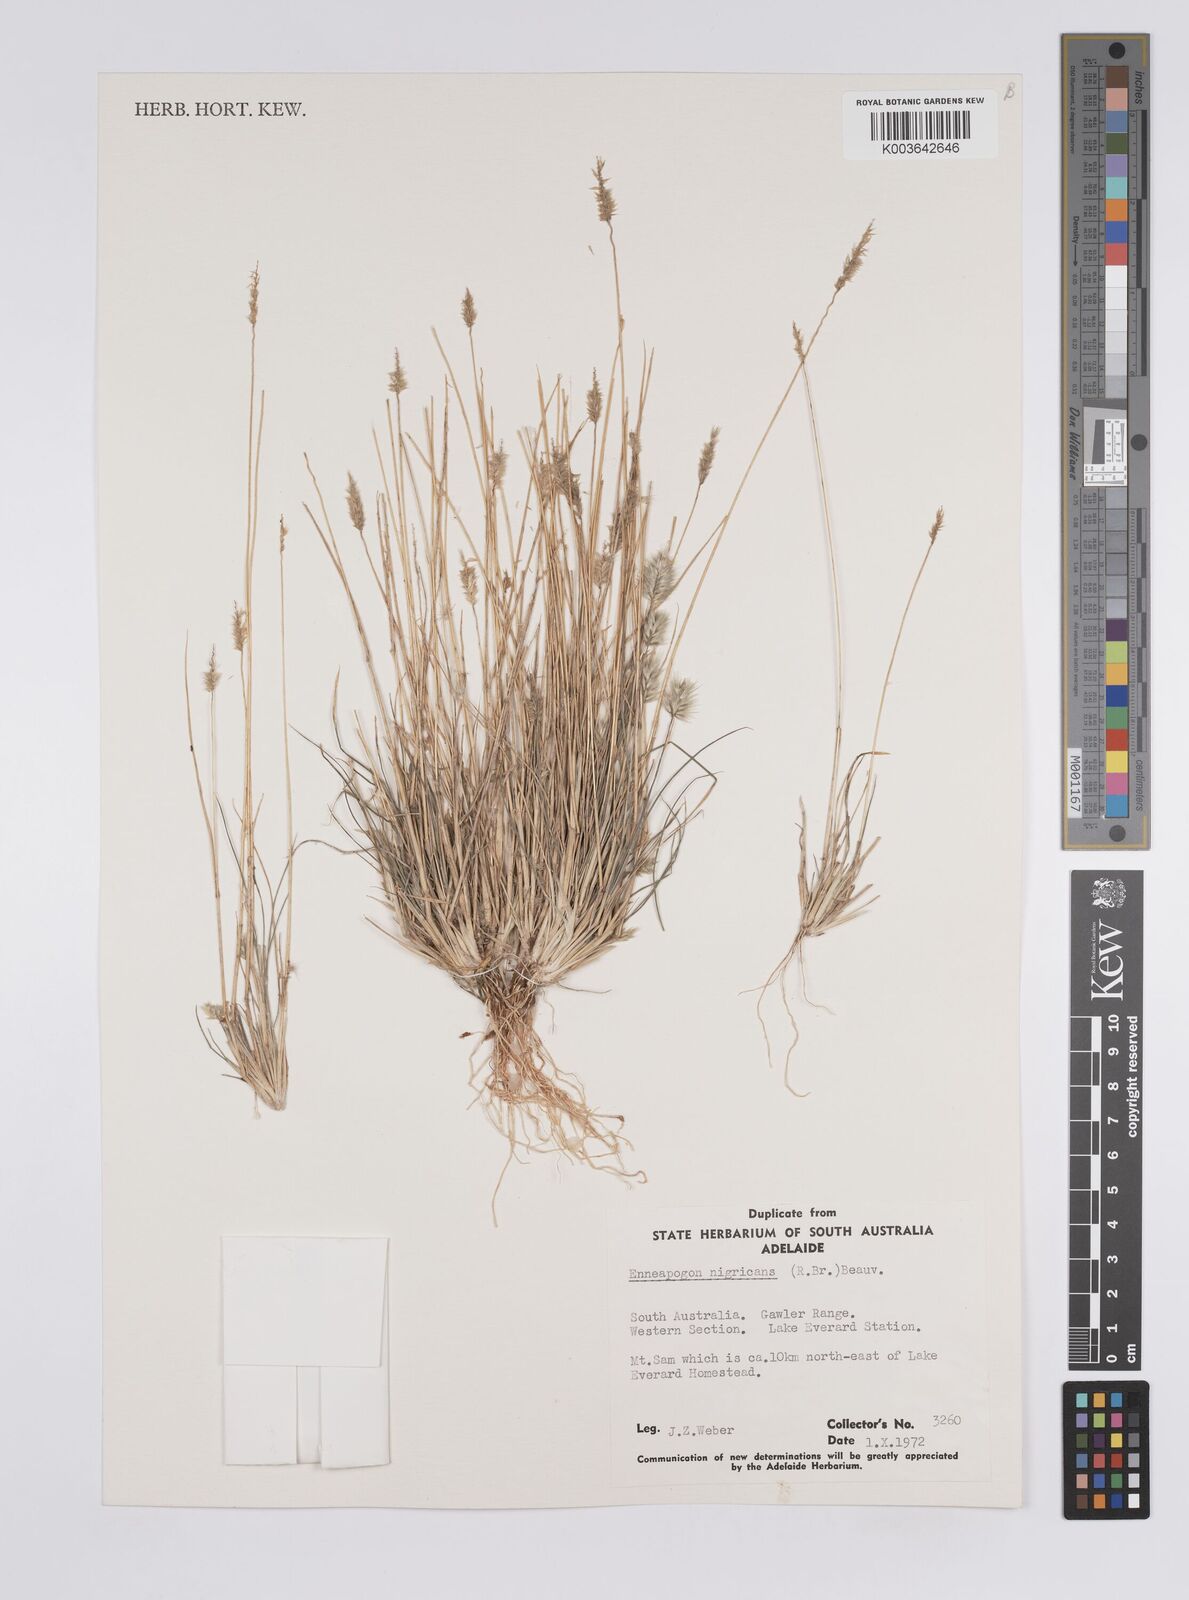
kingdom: Plantae
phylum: Tracheophyta
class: Liliopsida
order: Poales
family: Poaceae
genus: Enneapogon
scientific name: Enneapogon nigricans
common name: Pappus grass
